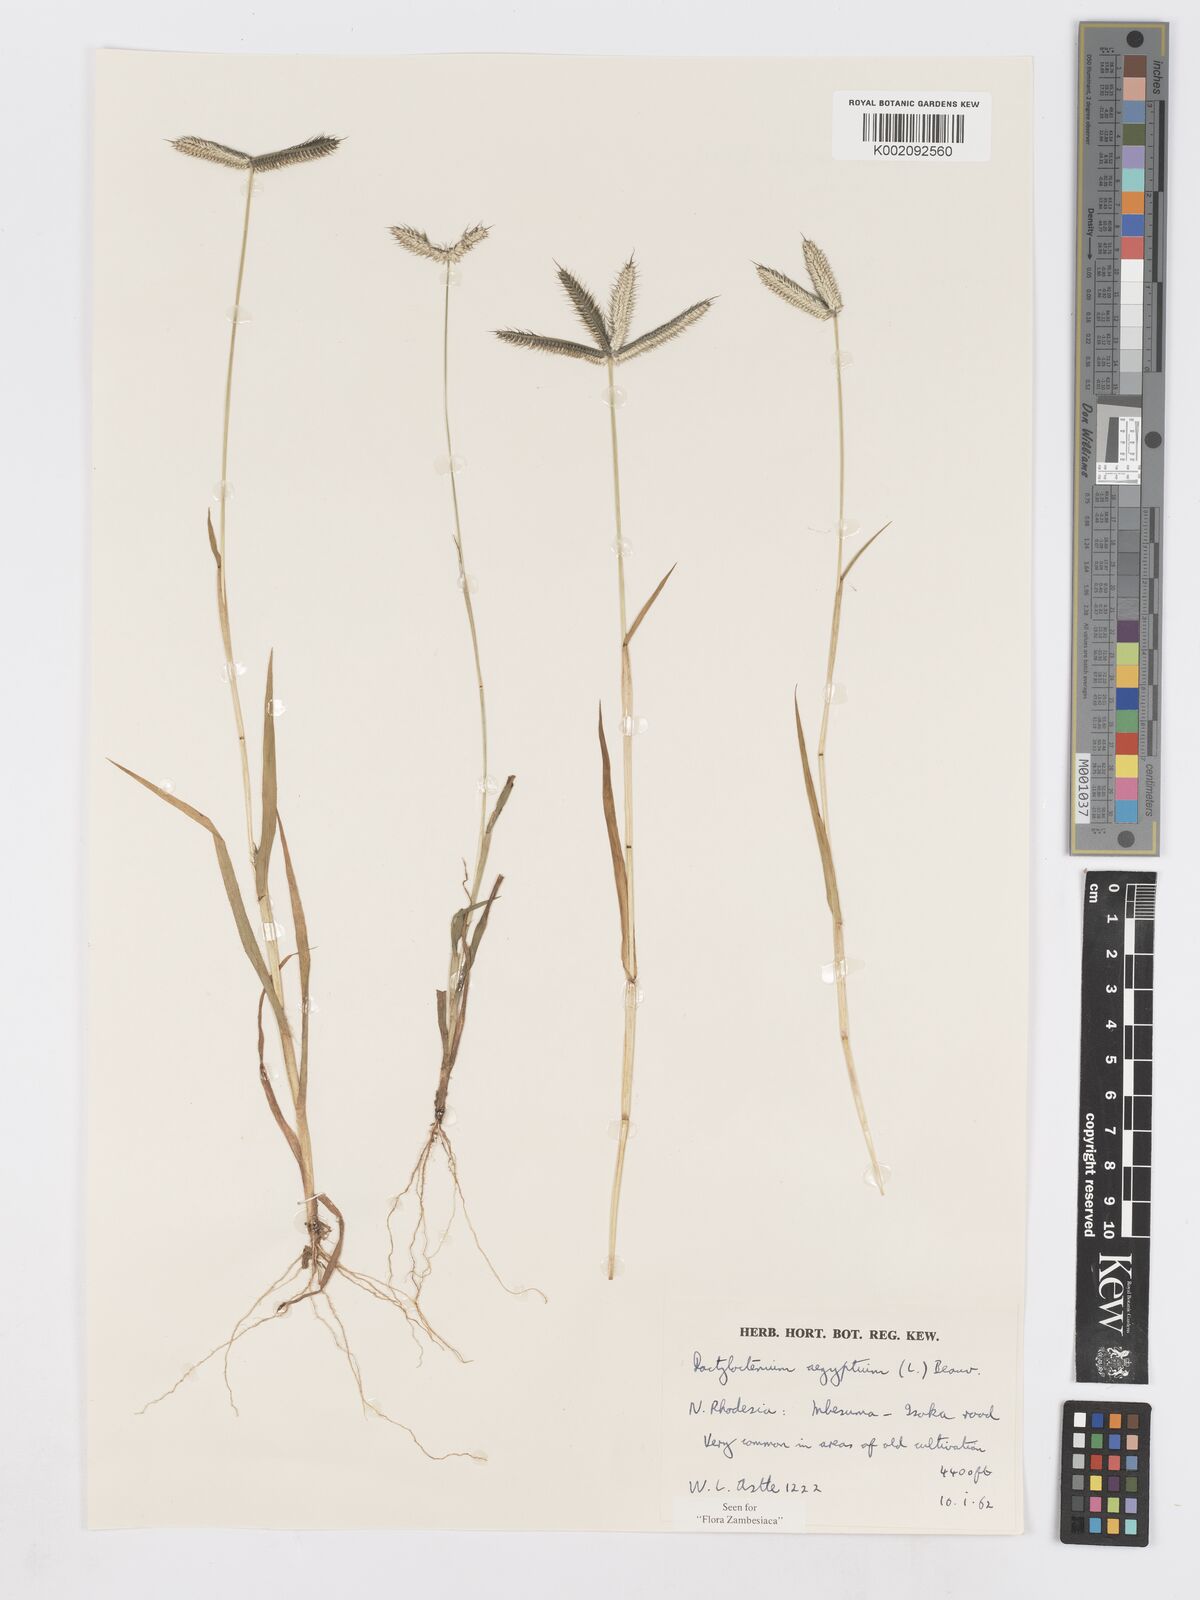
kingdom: Plantae
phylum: Tracheophyta
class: Liliopsida
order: Poales
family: Poaceae
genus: Dactyloctenium
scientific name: Dactyloctenium aegyptium
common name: Egyptian grass
